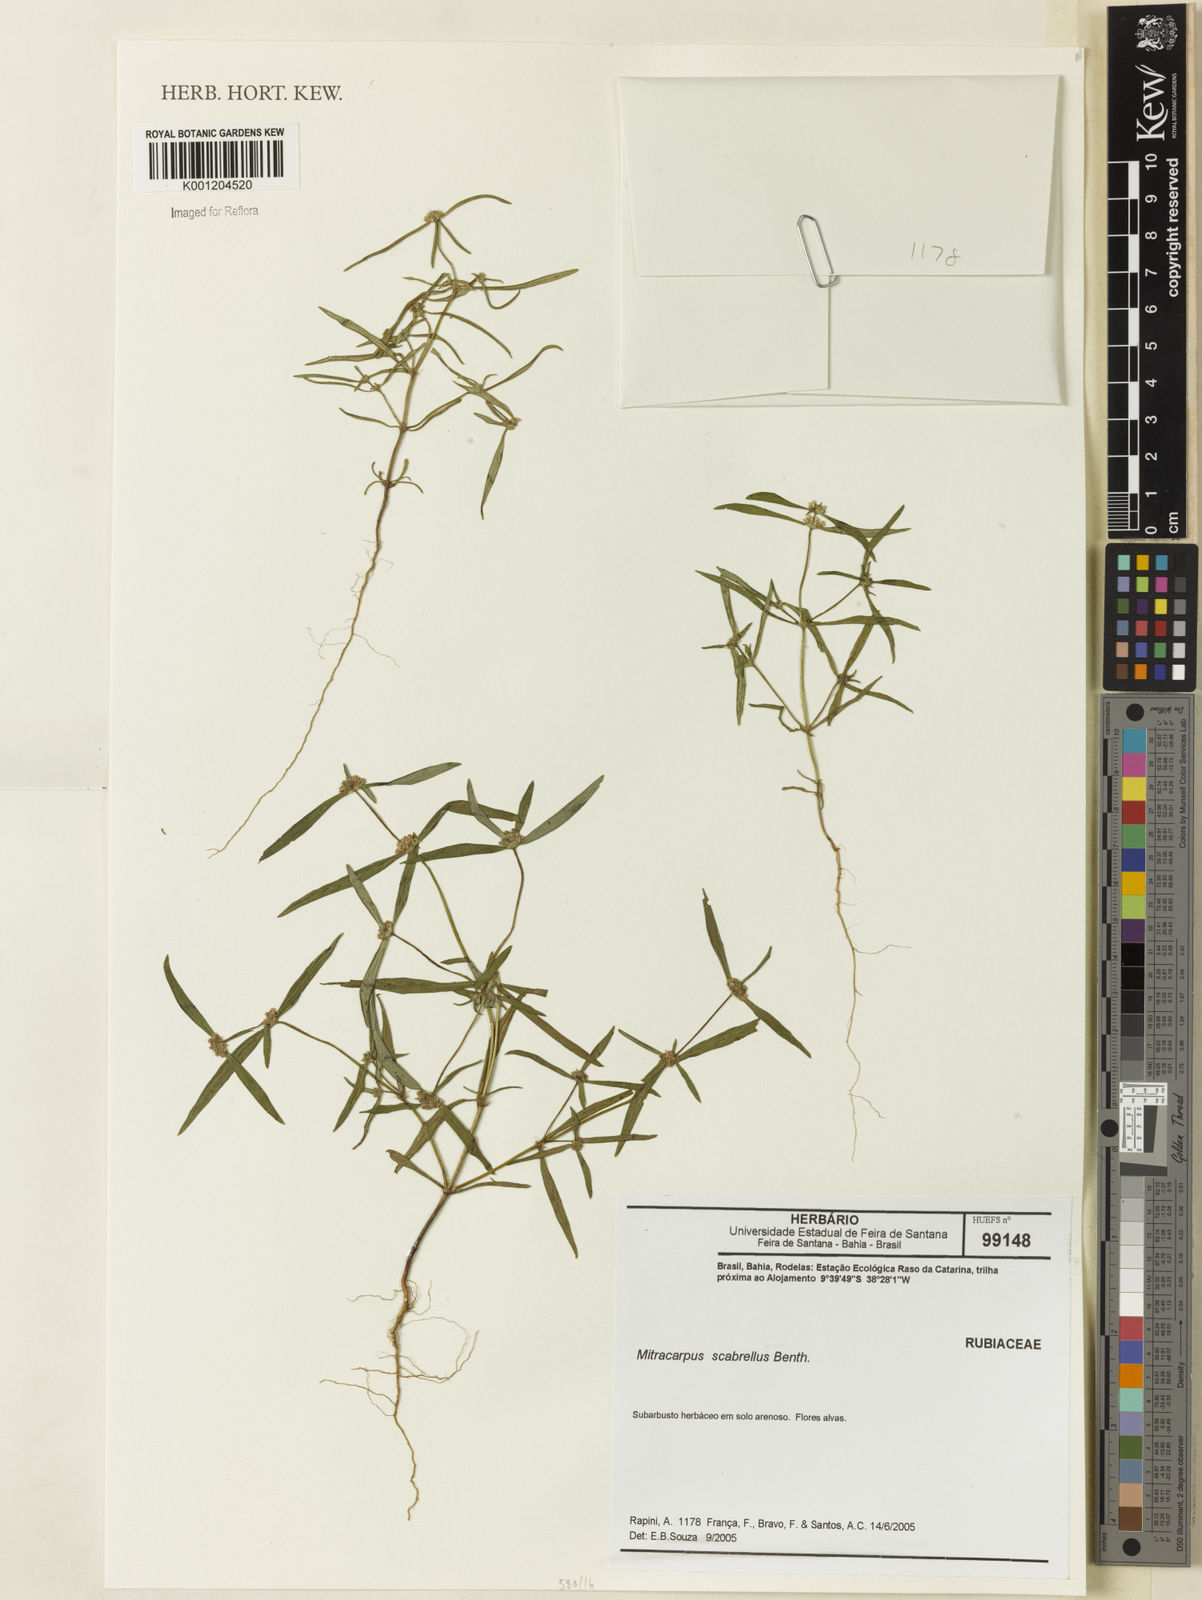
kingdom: Plantae
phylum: Tracheophyta
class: Magnoliopsida
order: Gentianales
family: Rubiaceae
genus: Mitracarpus
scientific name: Mitracarpus salzmannianus
